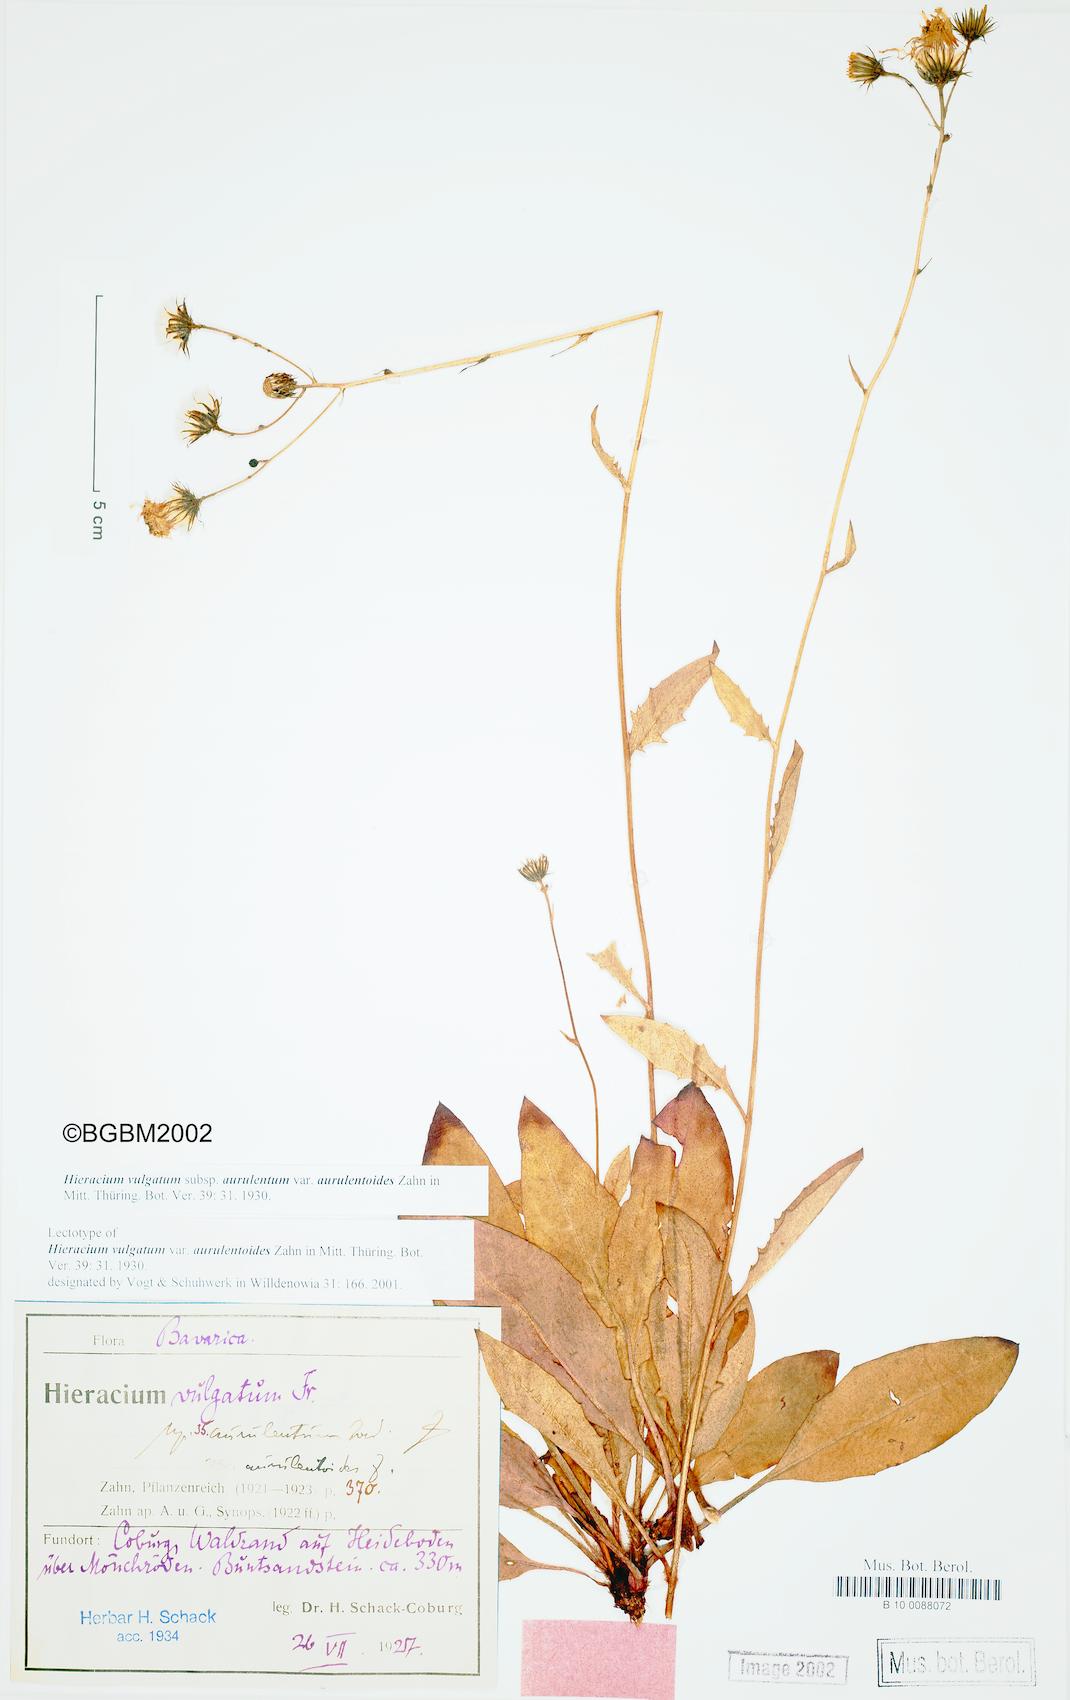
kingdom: Plantae
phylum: Tracheophyta
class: Magnoliopsida
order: Asterales
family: Asteraceae
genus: Hieracium
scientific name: Hieracium vulgatum
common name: Common hawkweed
